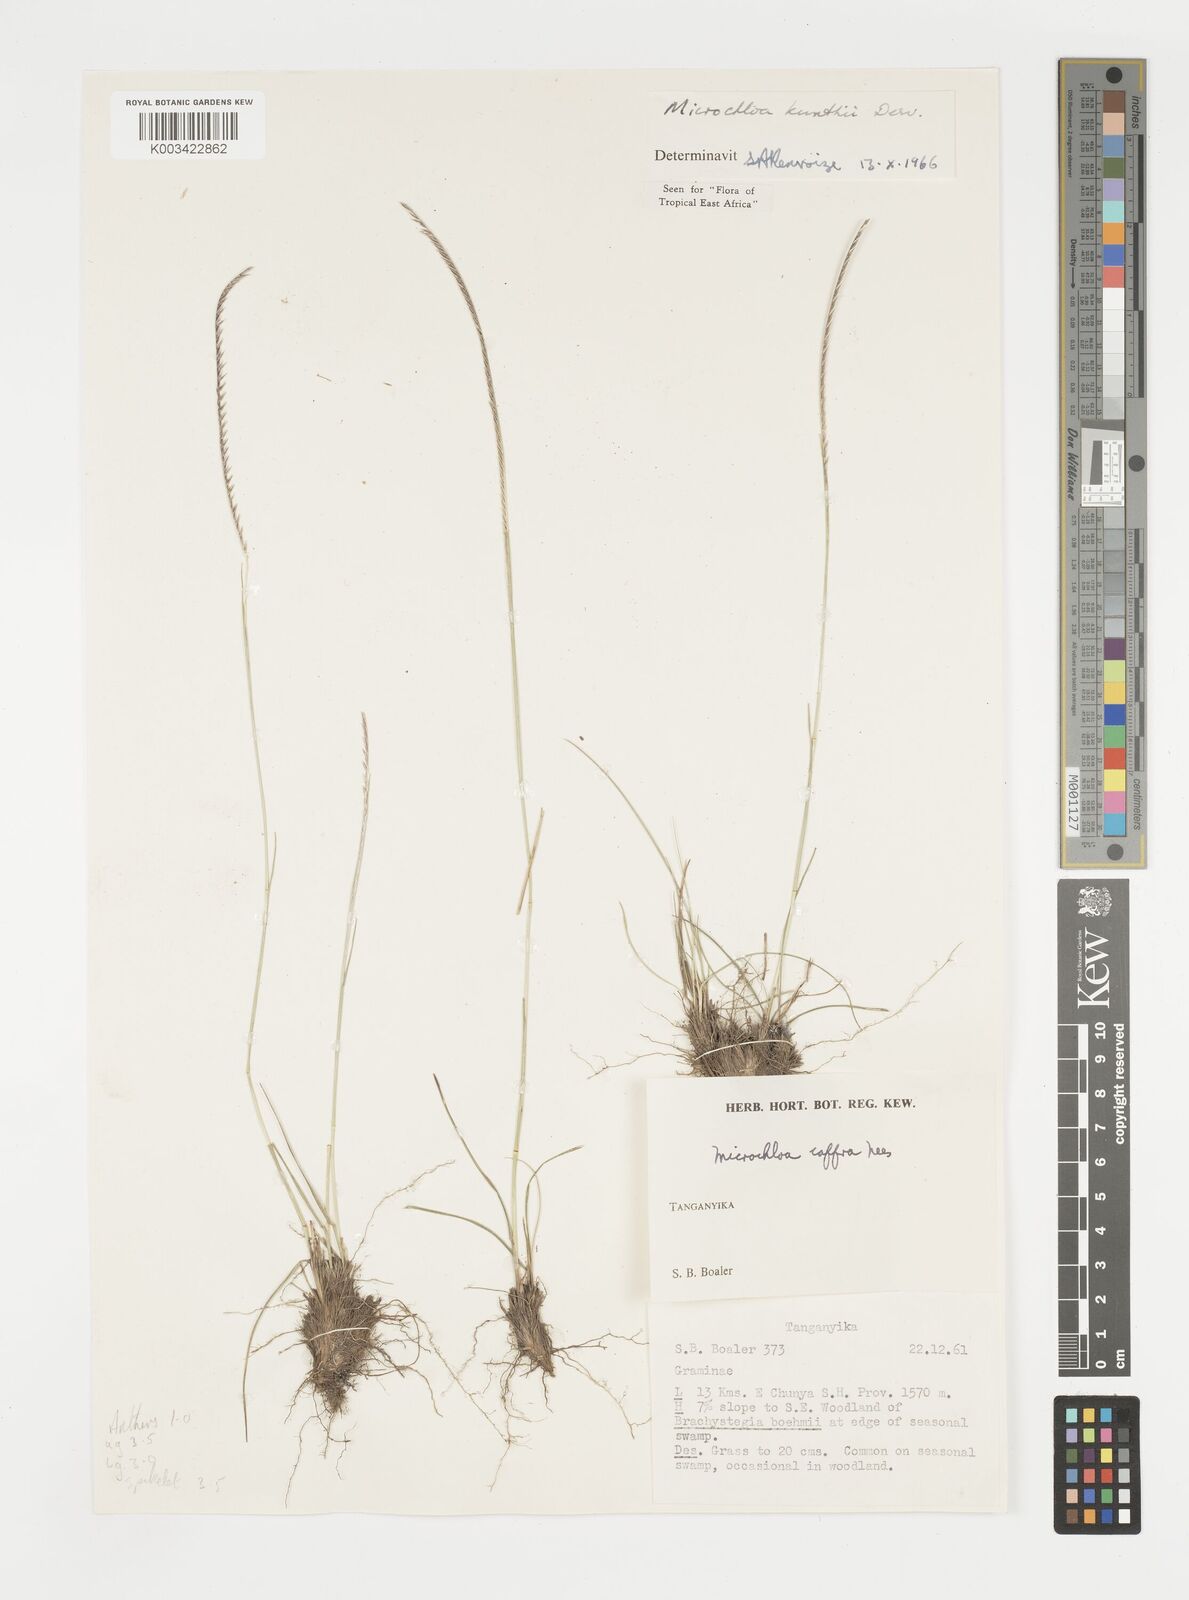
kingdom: Plantae
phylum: Tracheophyta
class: Liliopsida
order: Poales
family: Poaceae
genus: Microchloa
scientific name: Microchloa kunthii
